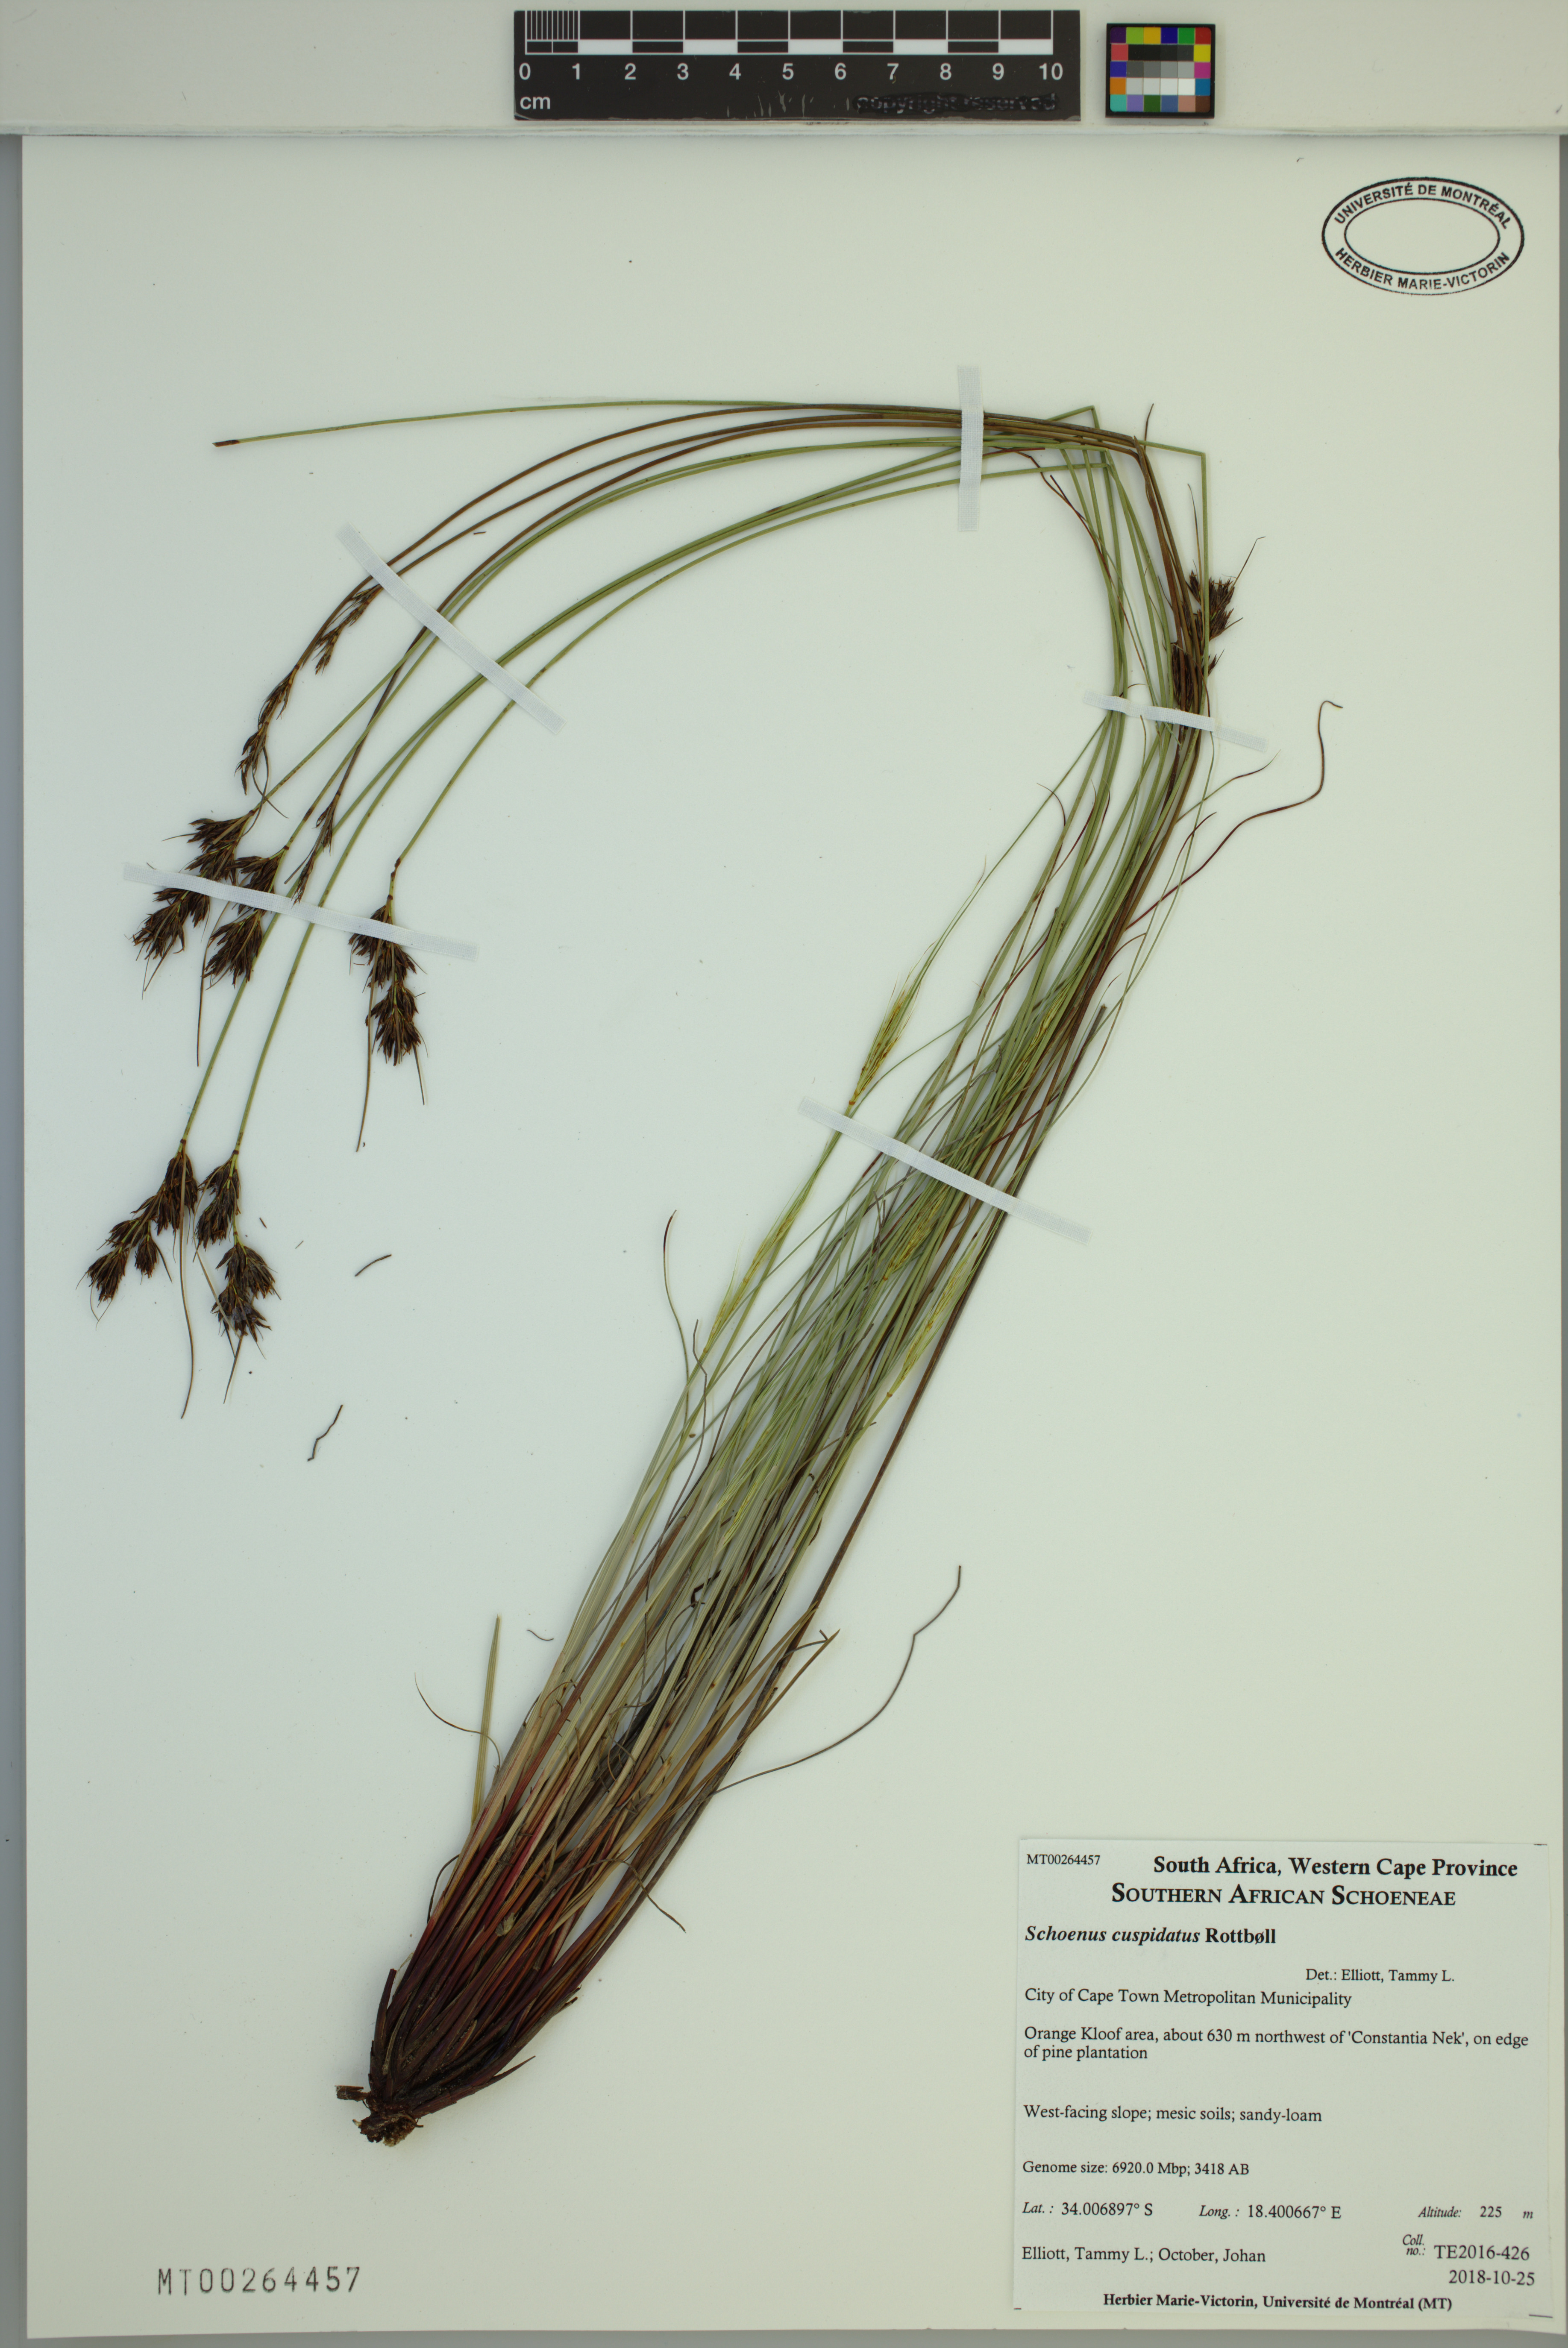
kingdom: Plantae
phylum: Tracheophyta
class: Liliopsida
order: Poales
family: Cyperaceae
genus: Schoenus
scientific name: Schoenus cuspidatus
